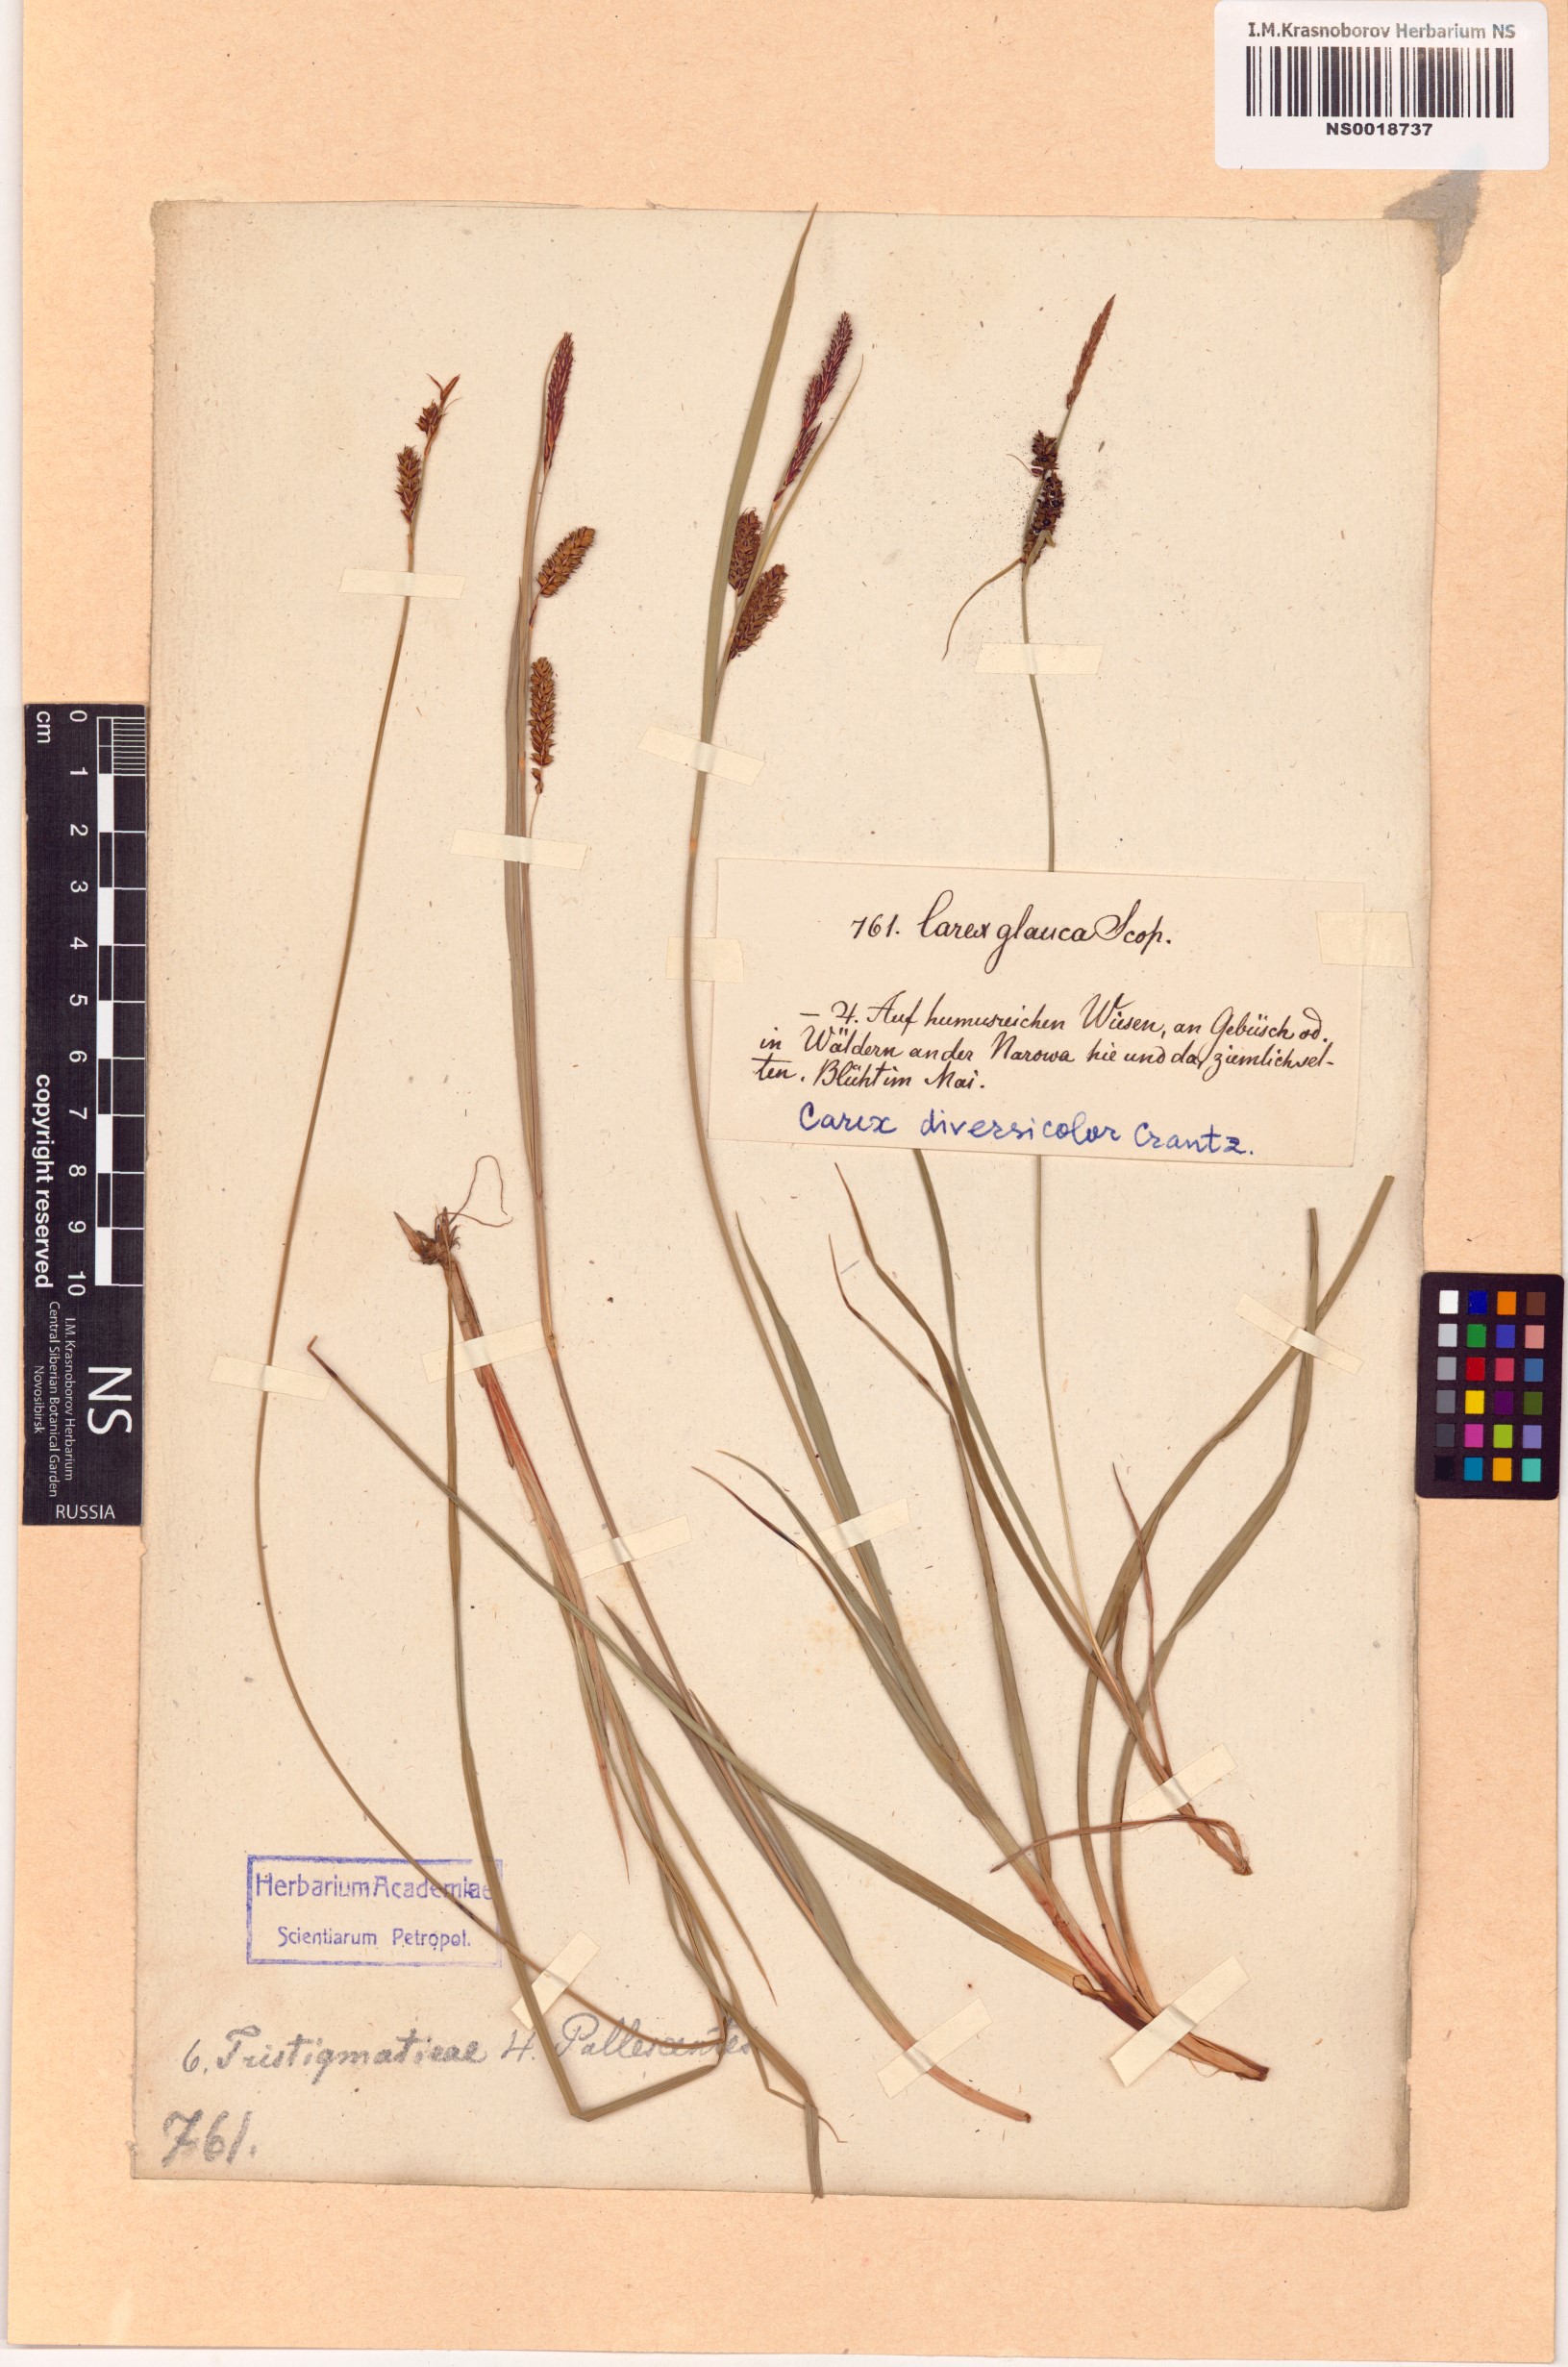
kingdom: Plantae
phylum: Tracheophyta
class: Liliopsida
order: Poales
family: Cyperaceae
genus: Carex
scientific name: Carex flacca
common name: Glaucous sedge
